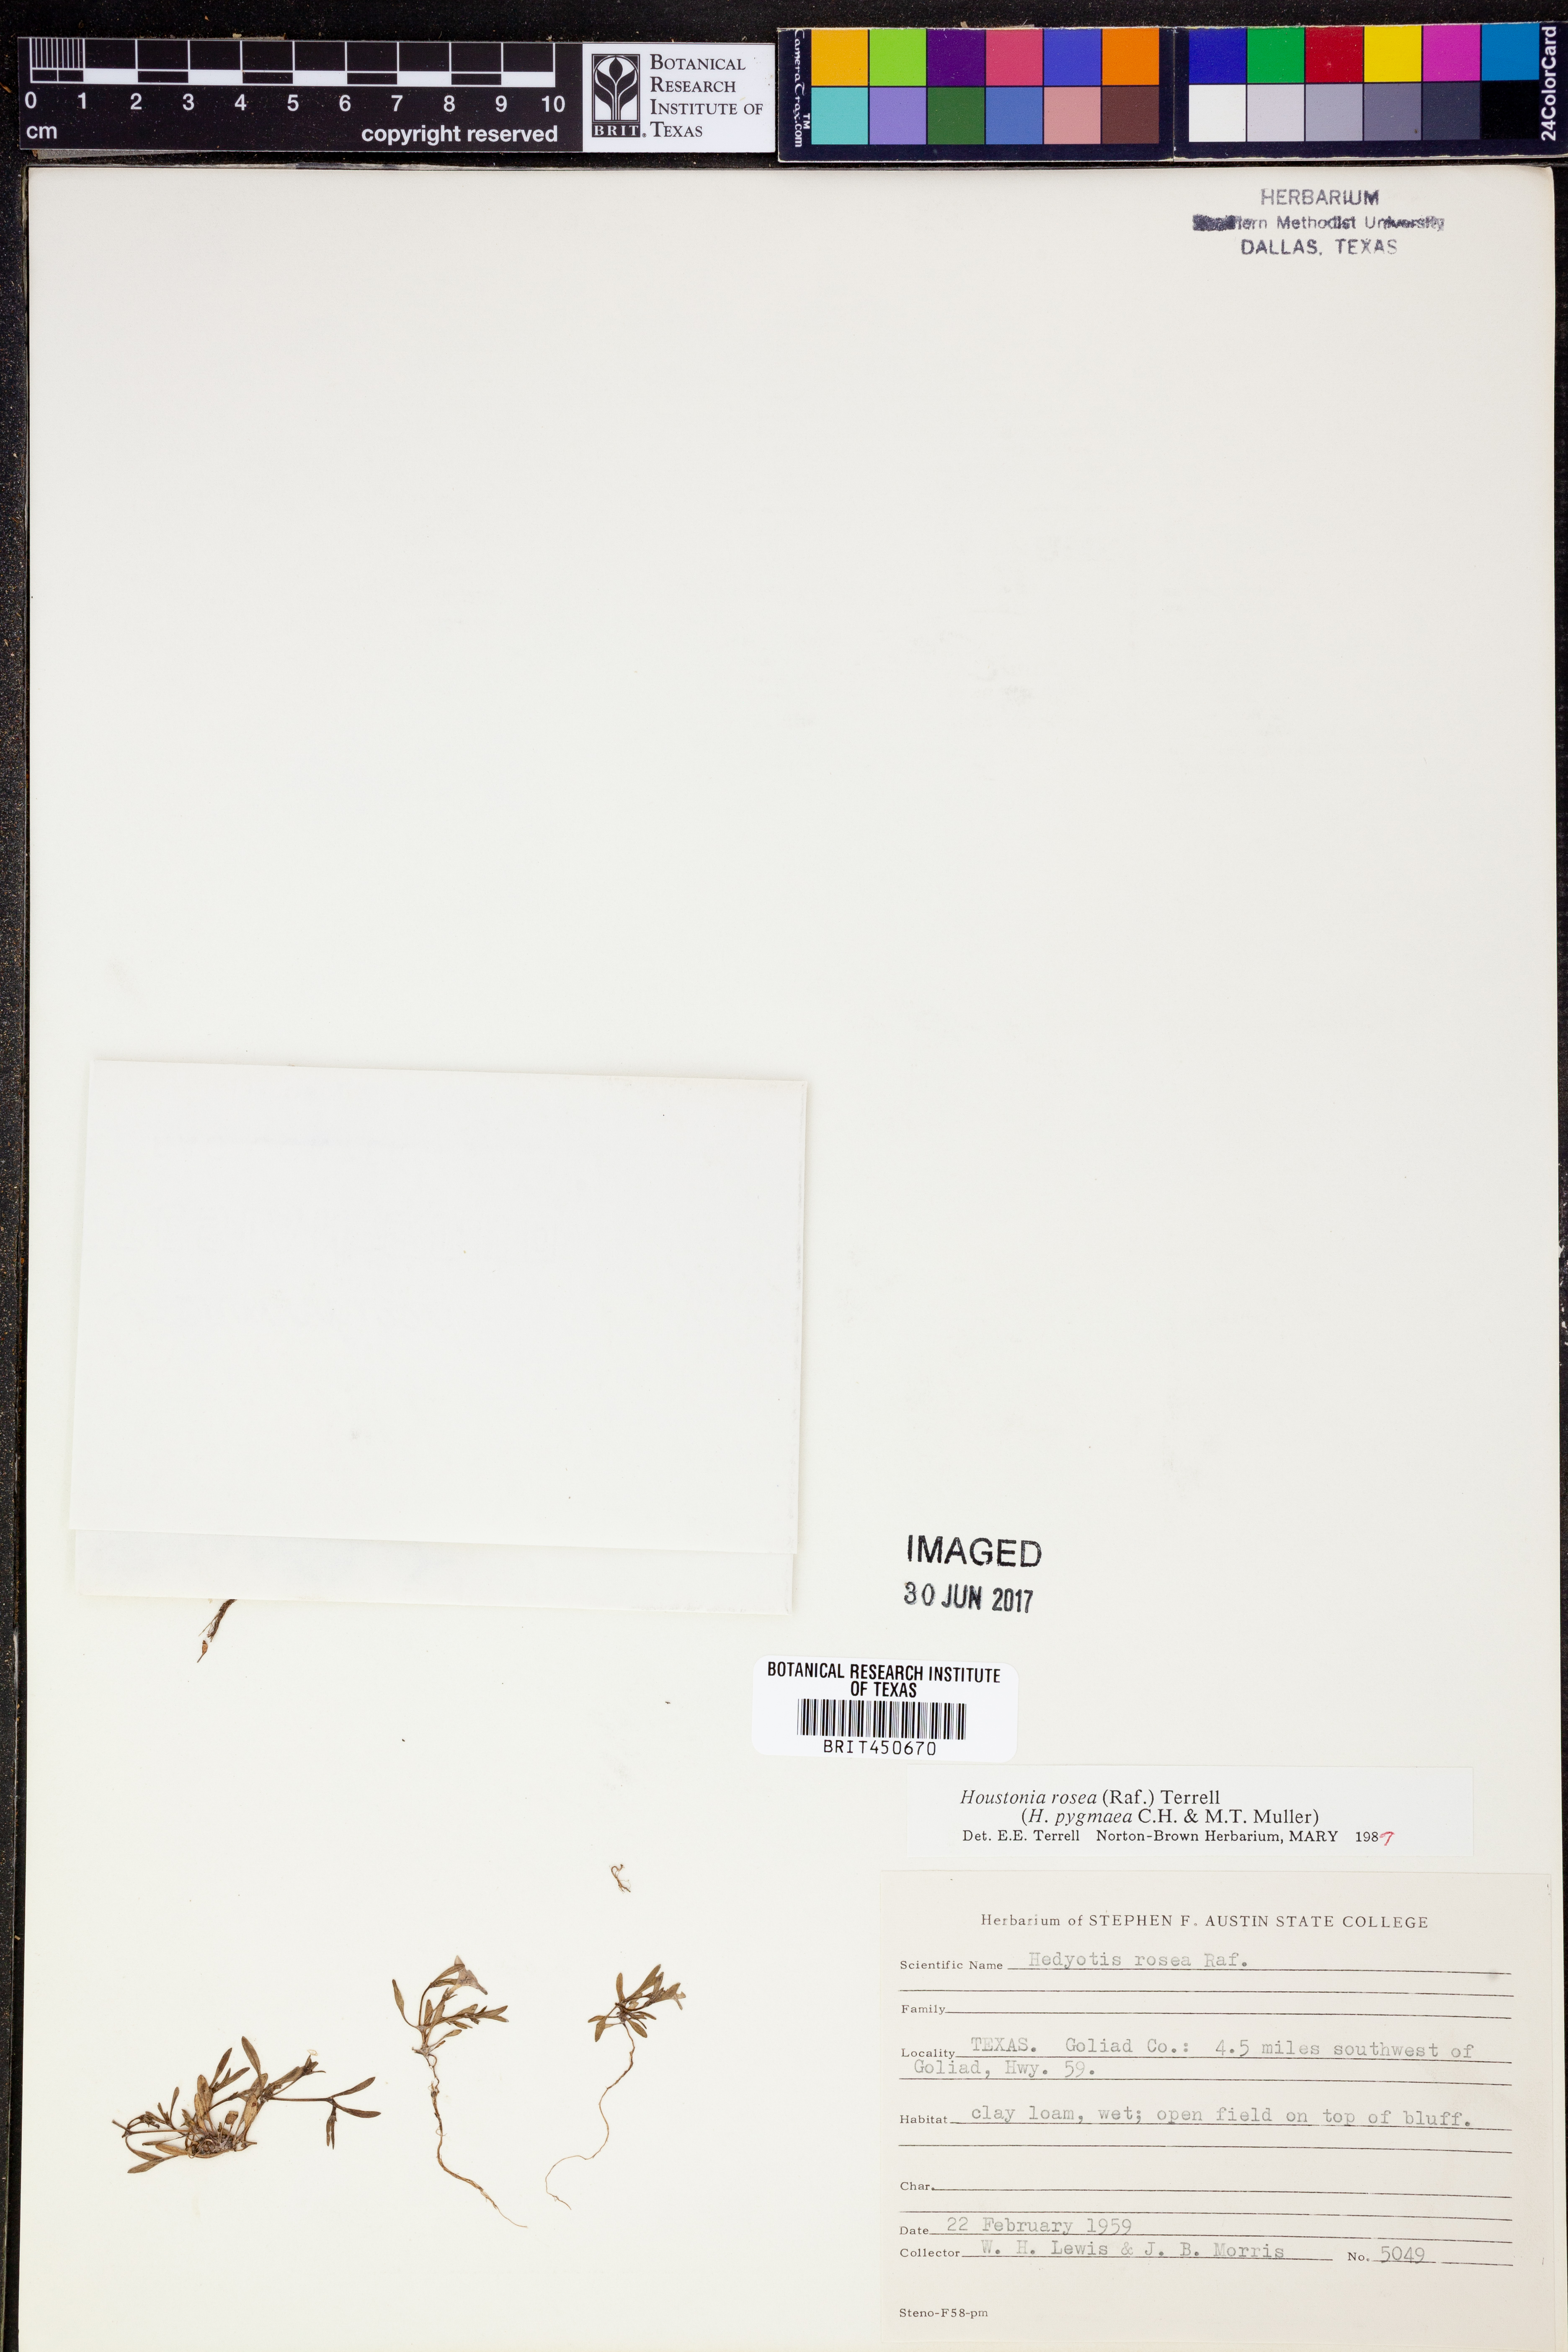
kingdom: Plantae
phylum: Tracheophyta
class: Magnoliopsida
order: Gentianales
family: Rubiaceae
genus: Houstonia
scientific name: Houstonia rosea
